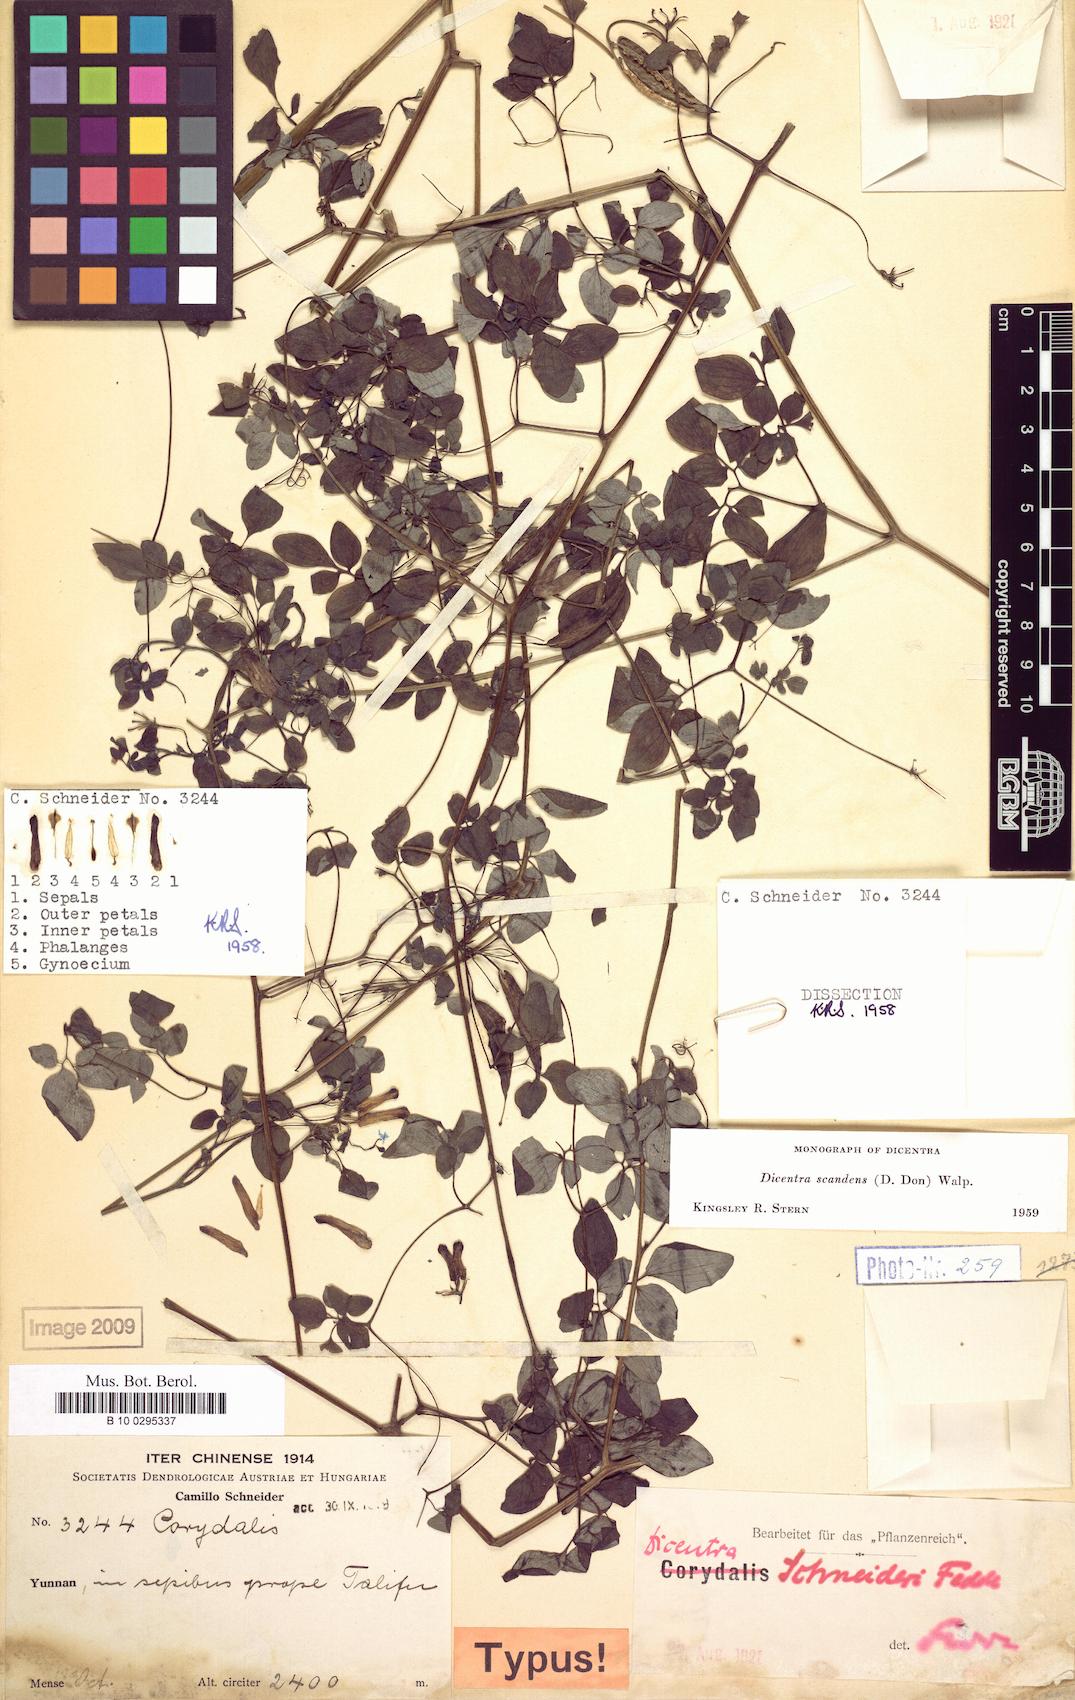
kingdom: Plantae
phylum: Tracheophyta
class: Magnoliopsida
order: Ranunculales
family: Papaveraceae
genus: Dactylicapnos
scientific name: Dactylicapnos scandens
